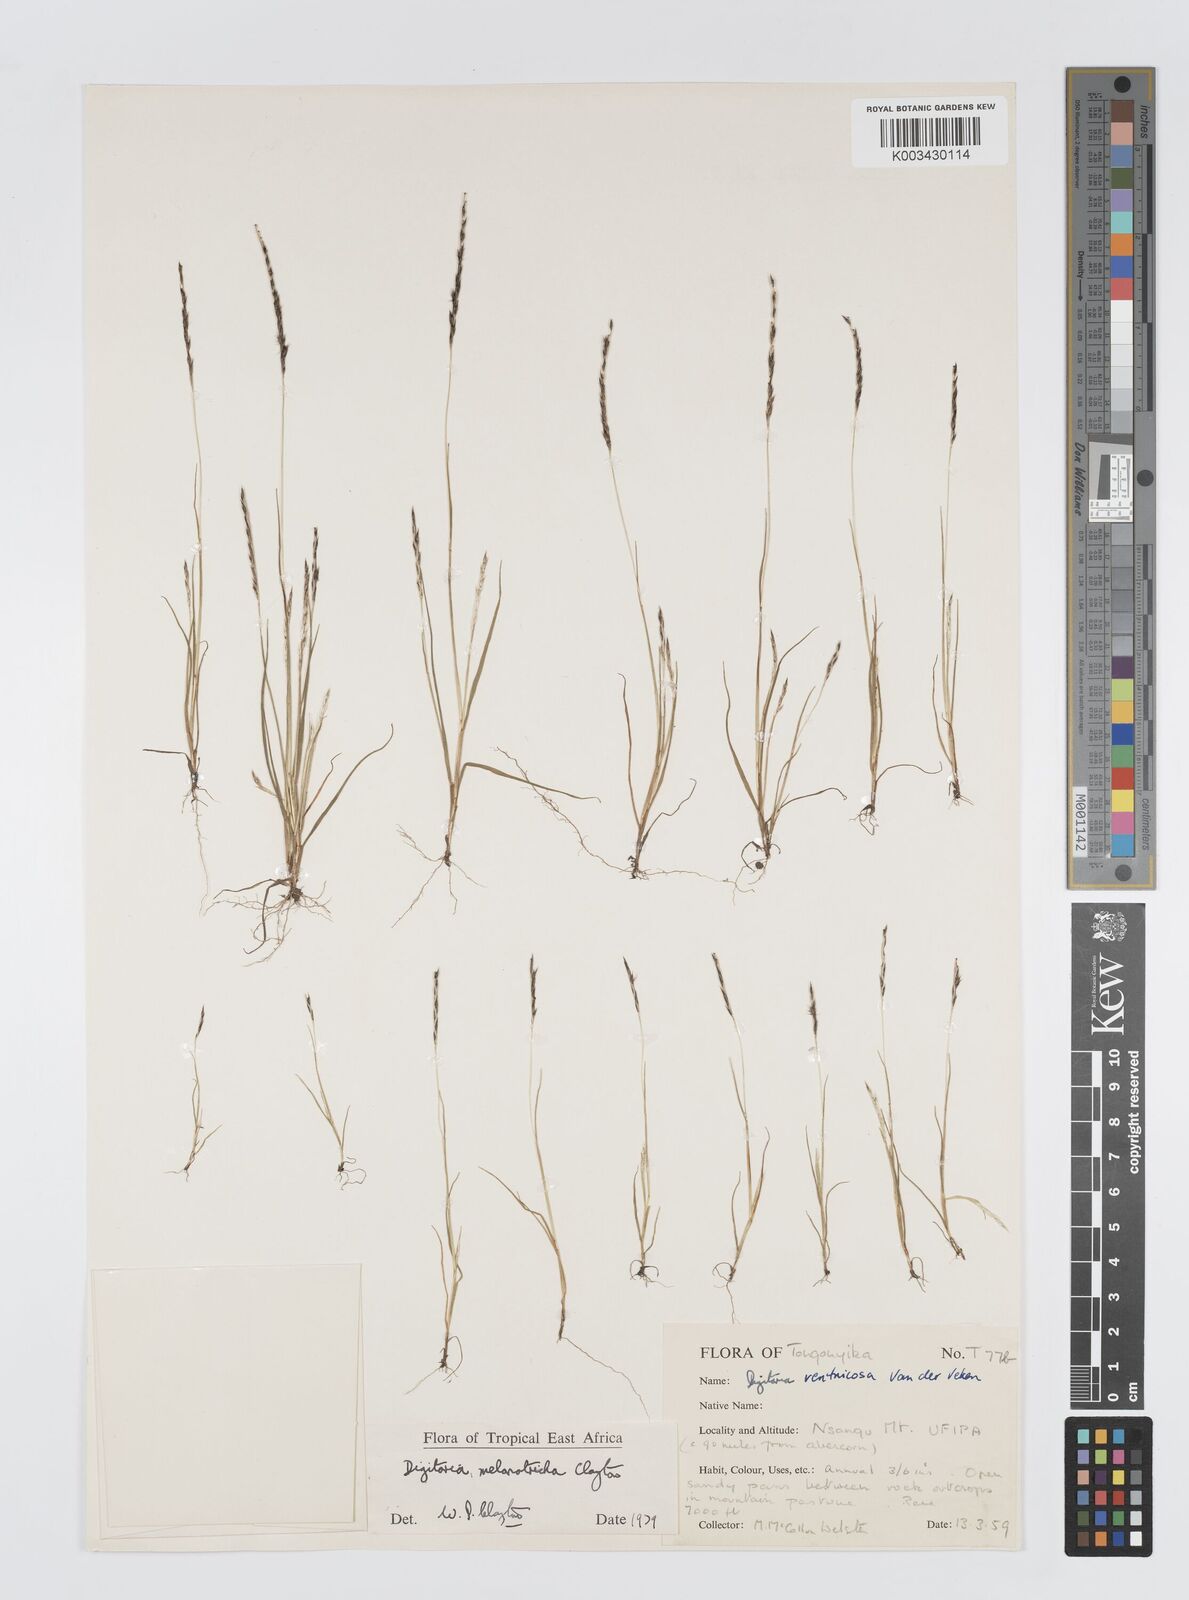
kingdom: Plantae
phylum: Tracheophyta
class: Liliopsida
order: Poales
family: Poaceae
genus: Digitaria
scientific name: Digitaria melanotricha
